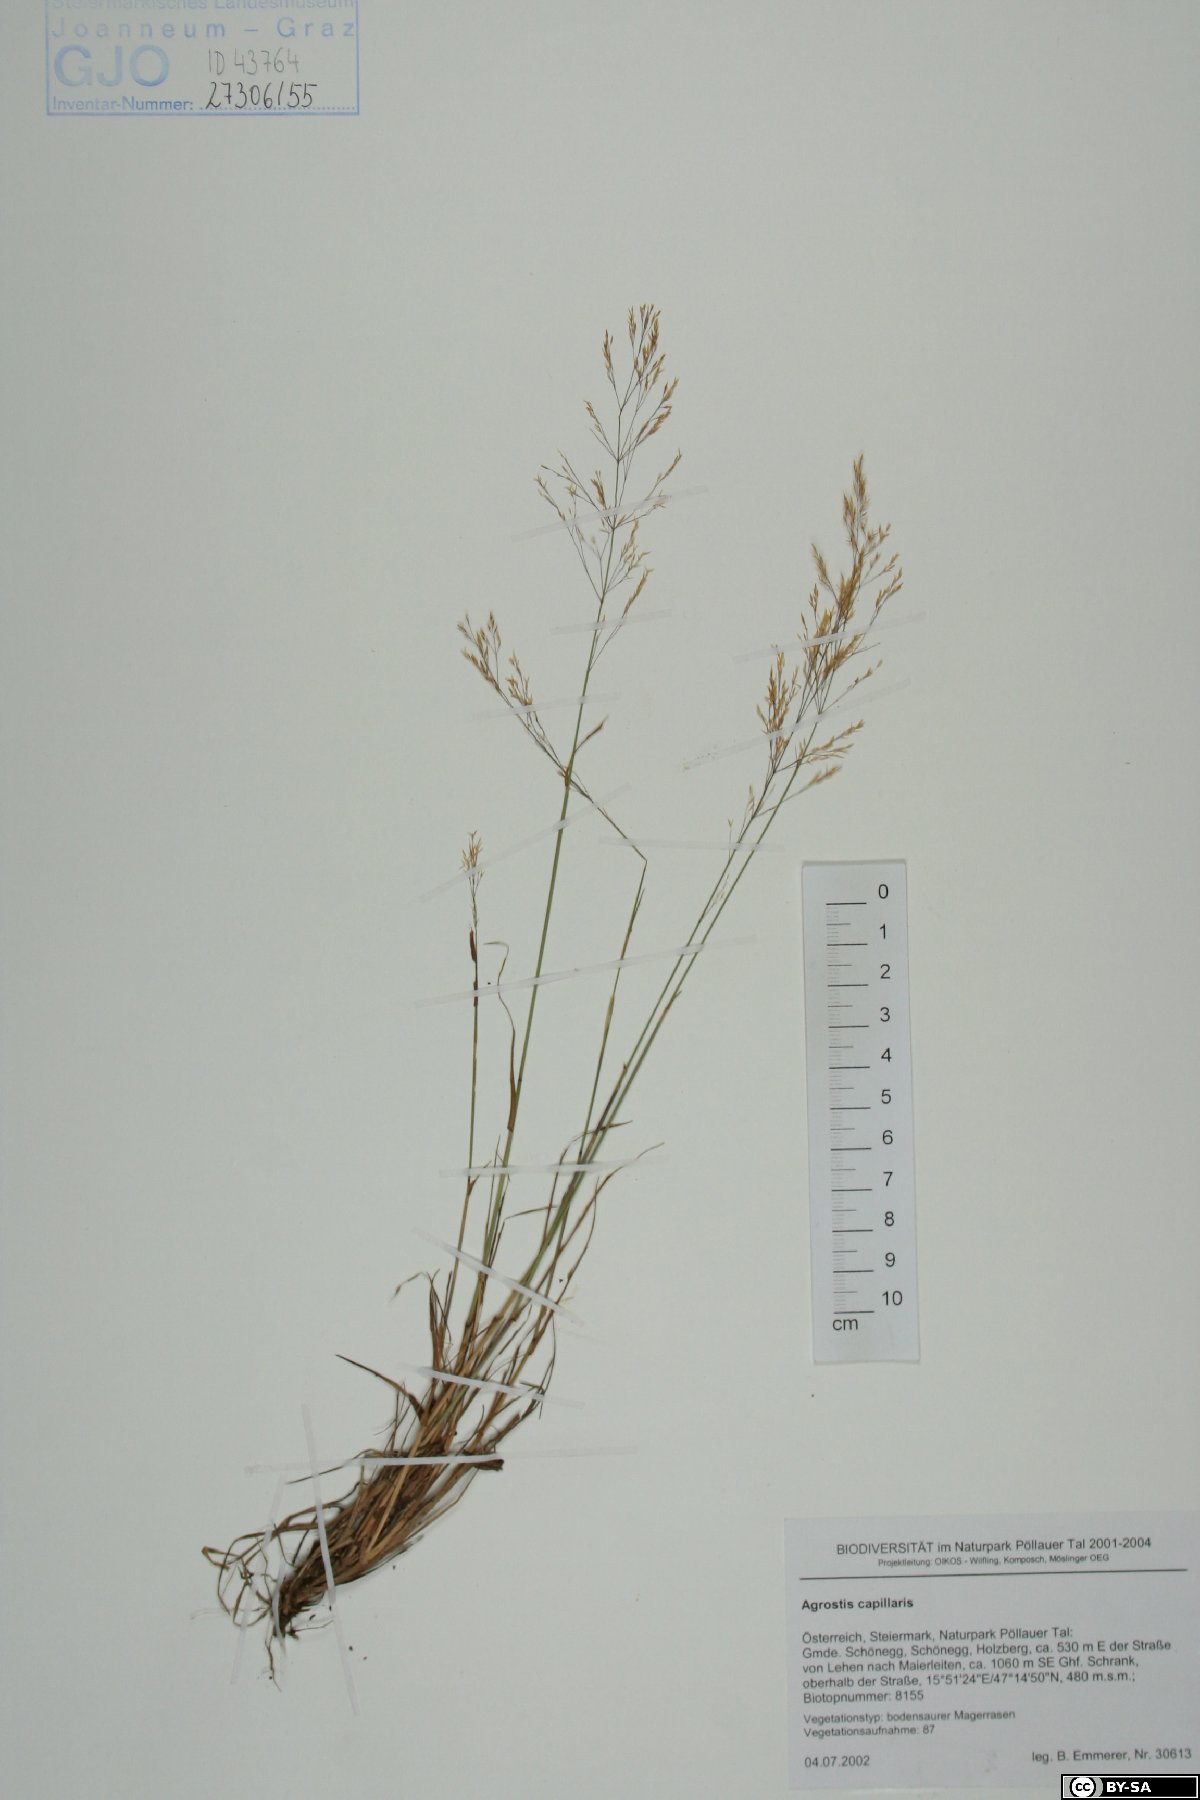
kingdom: Plantae
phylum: Tracheophyta
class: Liliopsida
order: Poales
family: Poaceae
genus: Agrostis
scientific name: Agrostis capillaris
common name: Colonial bentgrass
